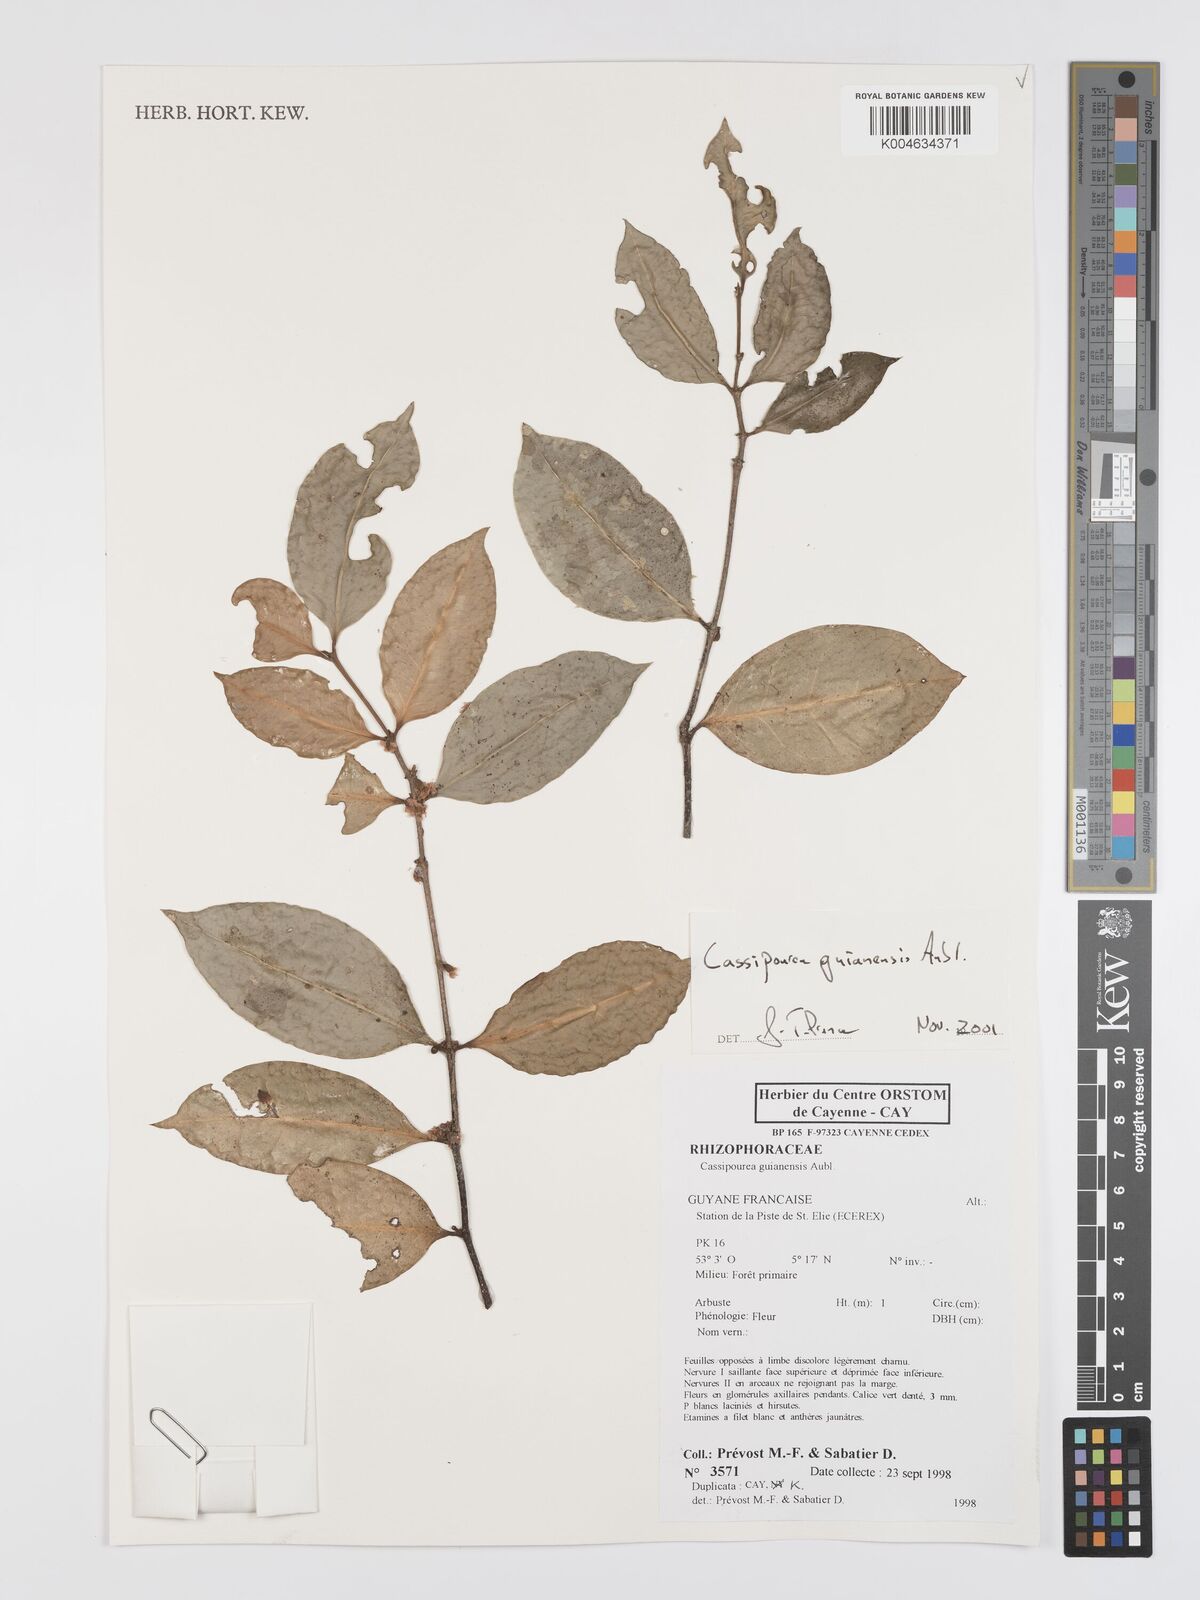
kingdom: Plantae
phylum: Tracheophyta
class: Magnoliopsida
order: Malpighiales
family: Rhizophoraceae
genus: Cassipourea
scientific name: Cassipourea guianensis
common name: Bastard waterwood
